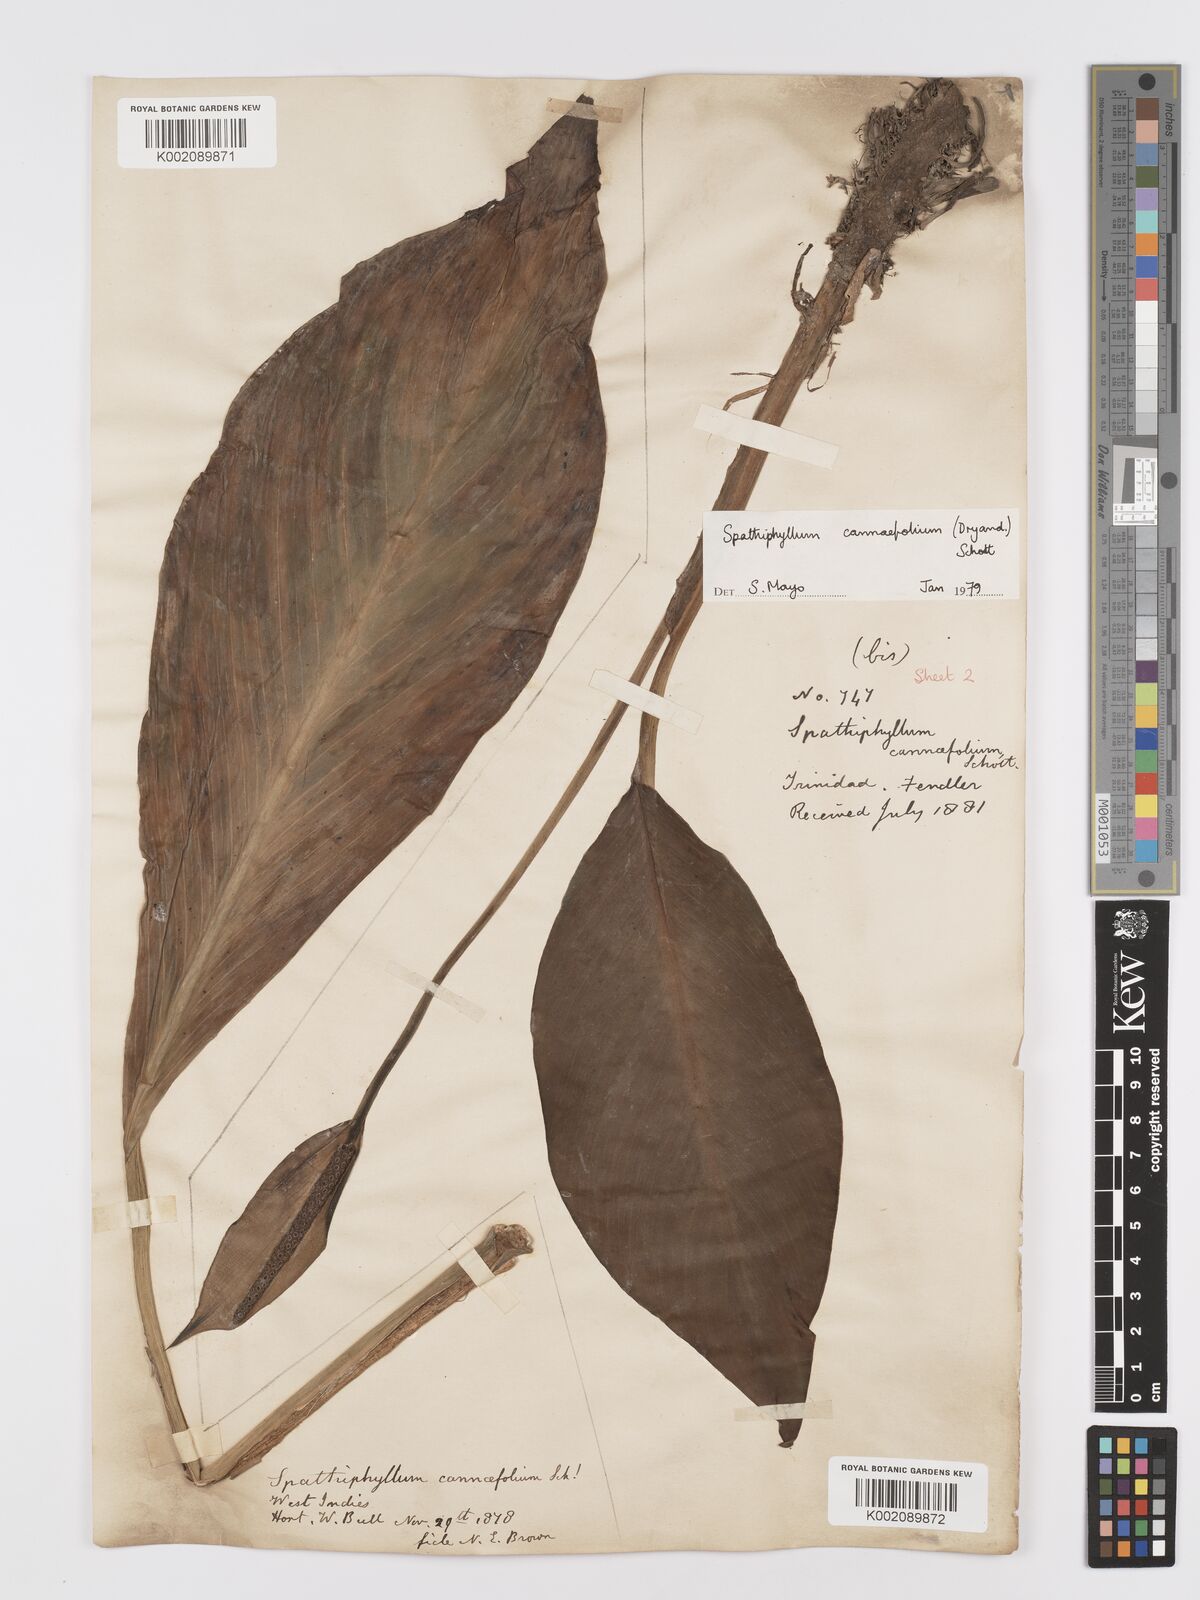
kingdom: Plantae
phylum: Tracheophyta
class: Liliopsida
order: Alismatales
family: Araceae
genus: Spathiphyllum
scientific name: Spathiphyllum cannifolium
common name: Spatheflower
